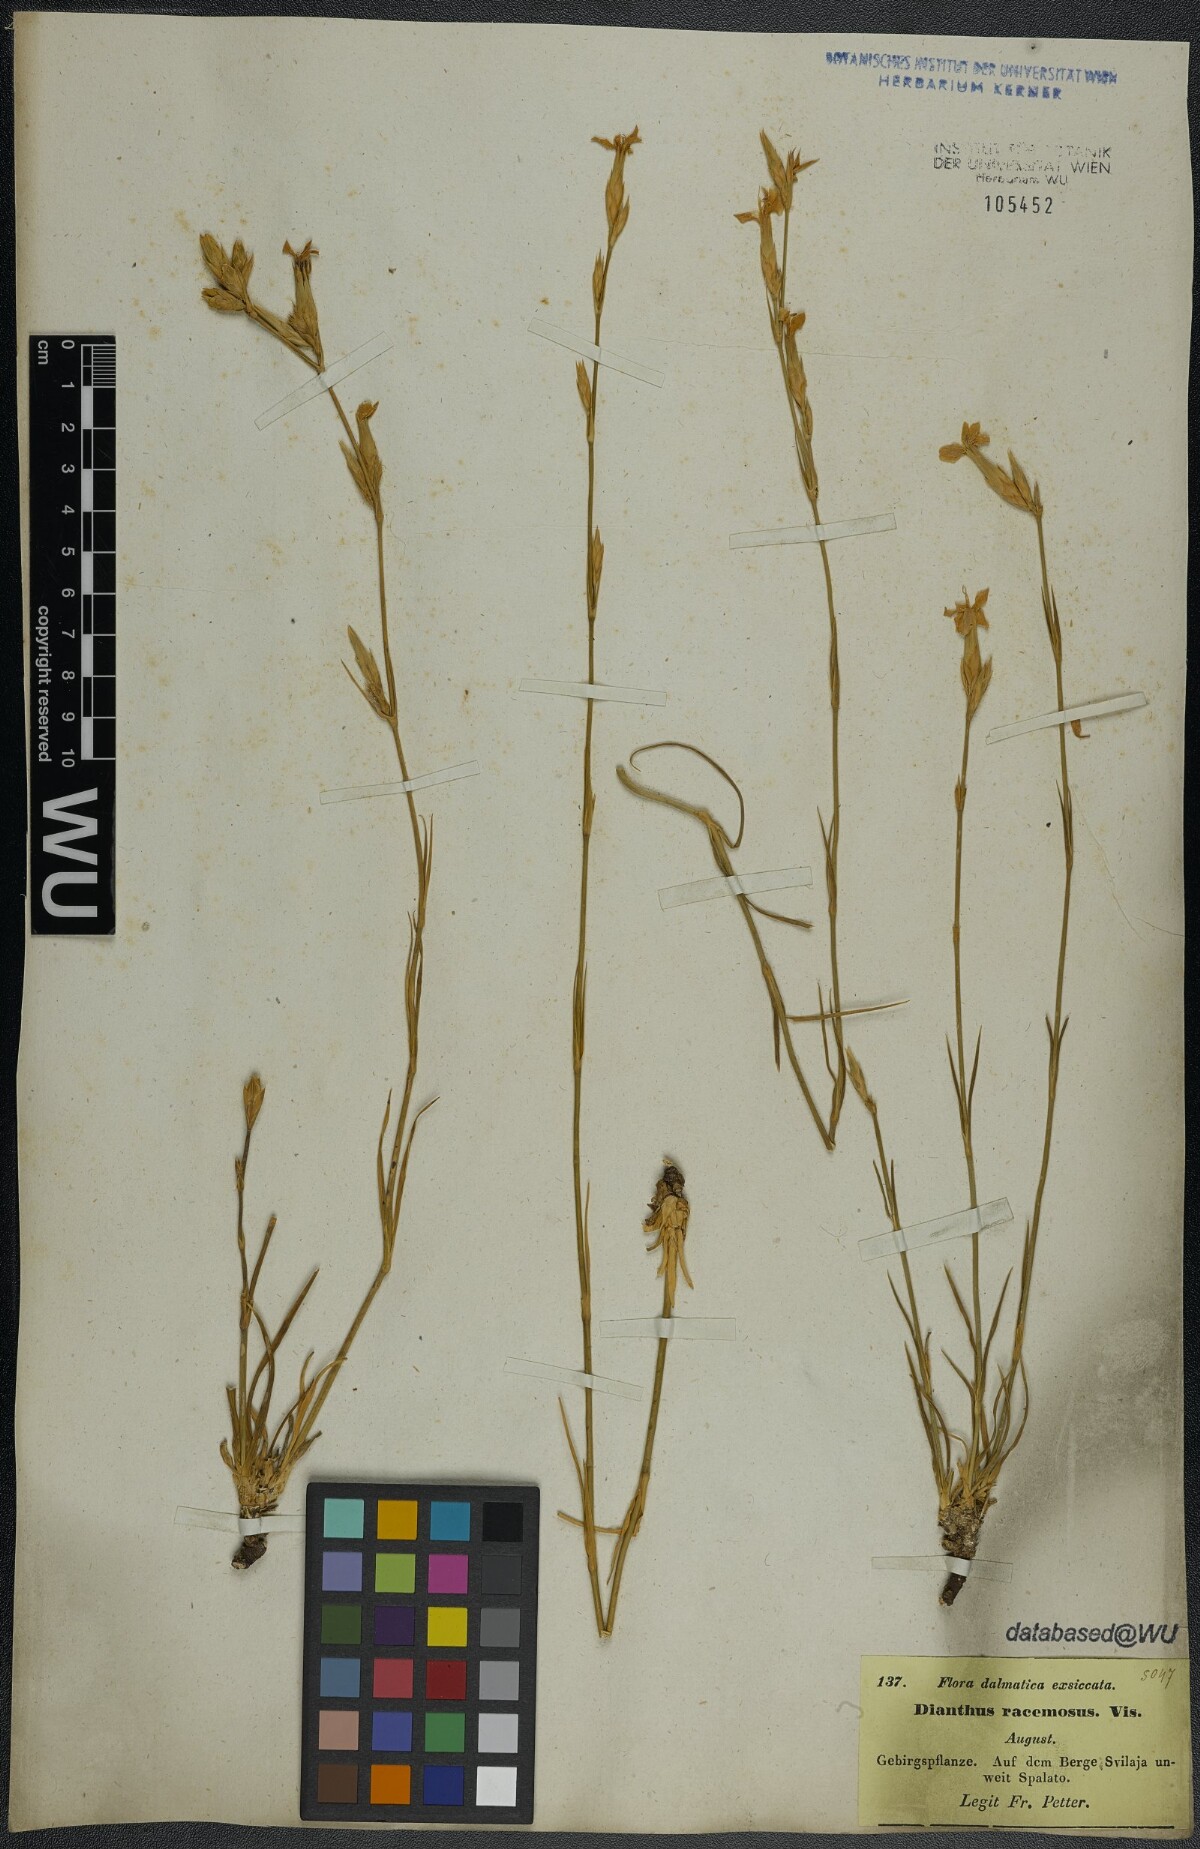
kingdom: Plantae
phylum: Tracheophyta
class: Magnoliopsida
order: Caryophyllales
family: Caryophyllaceae
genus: Dianthus
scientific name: Dianthus ciliatus
